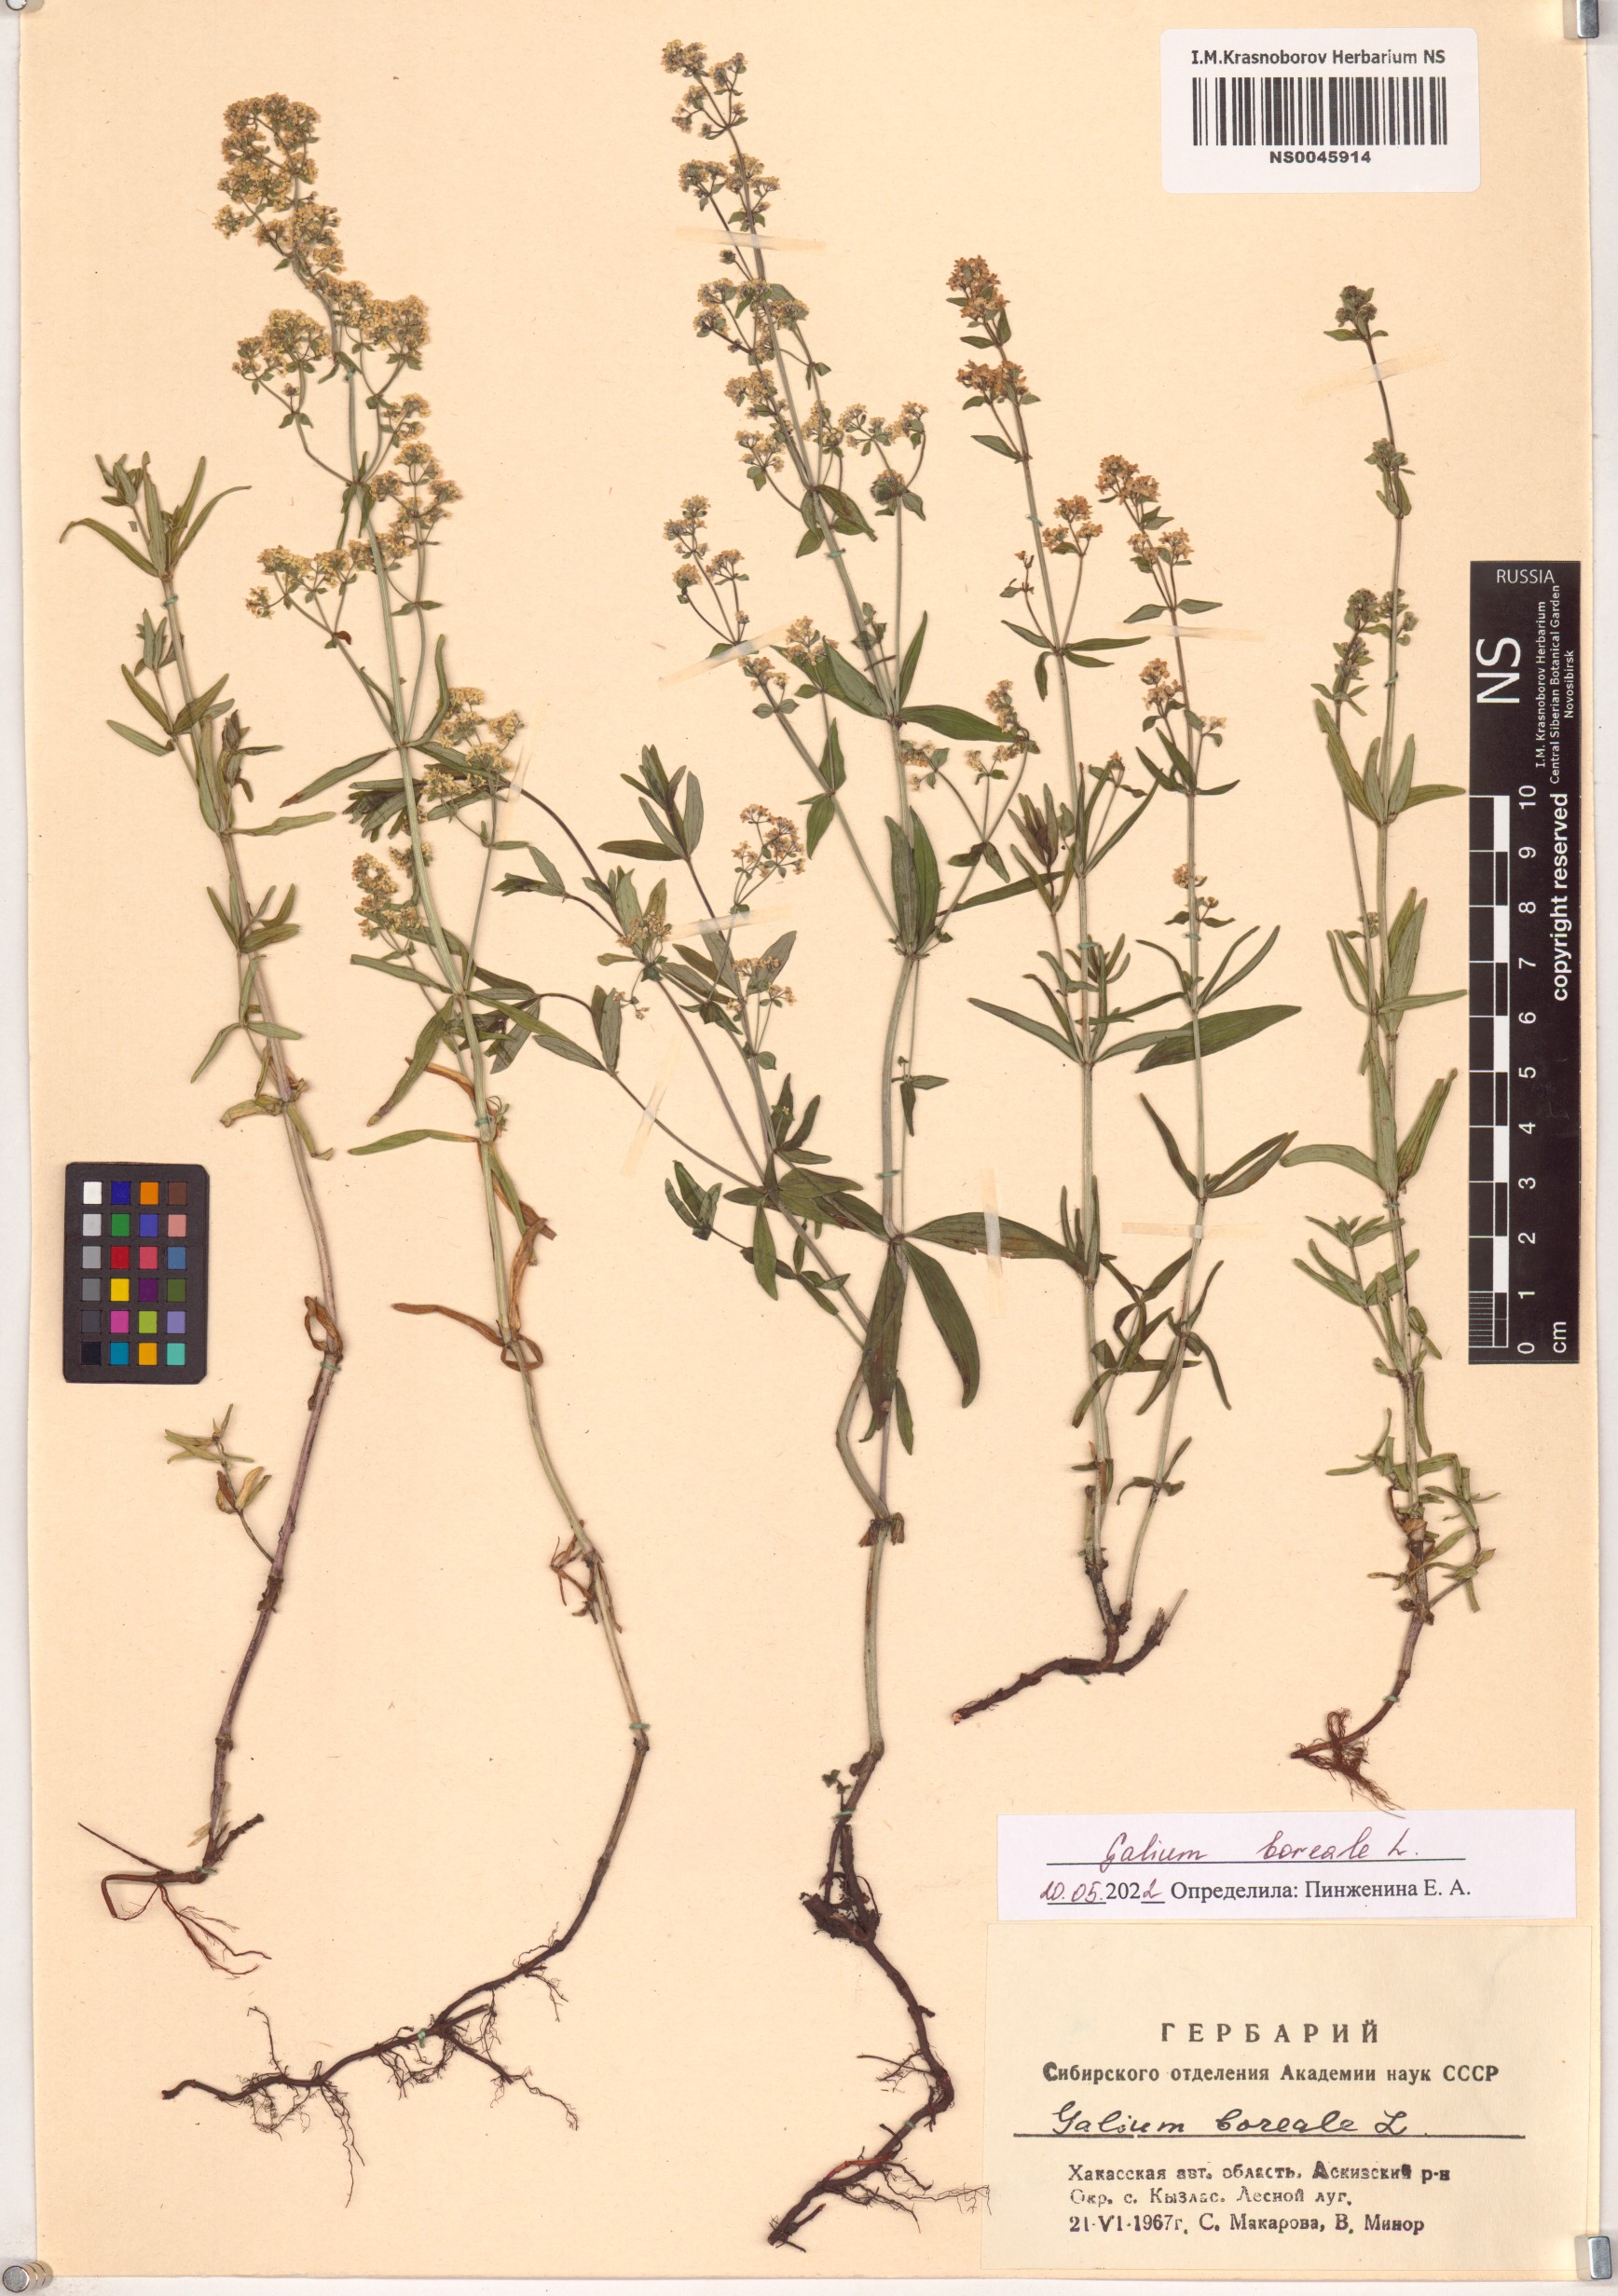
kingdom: Plantae
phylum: Tracheophyta
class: Magnoliopsida
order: Gentianales
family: Rubiaceae
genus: Galium
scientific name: Galium boreale
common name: Northern bedstraw
